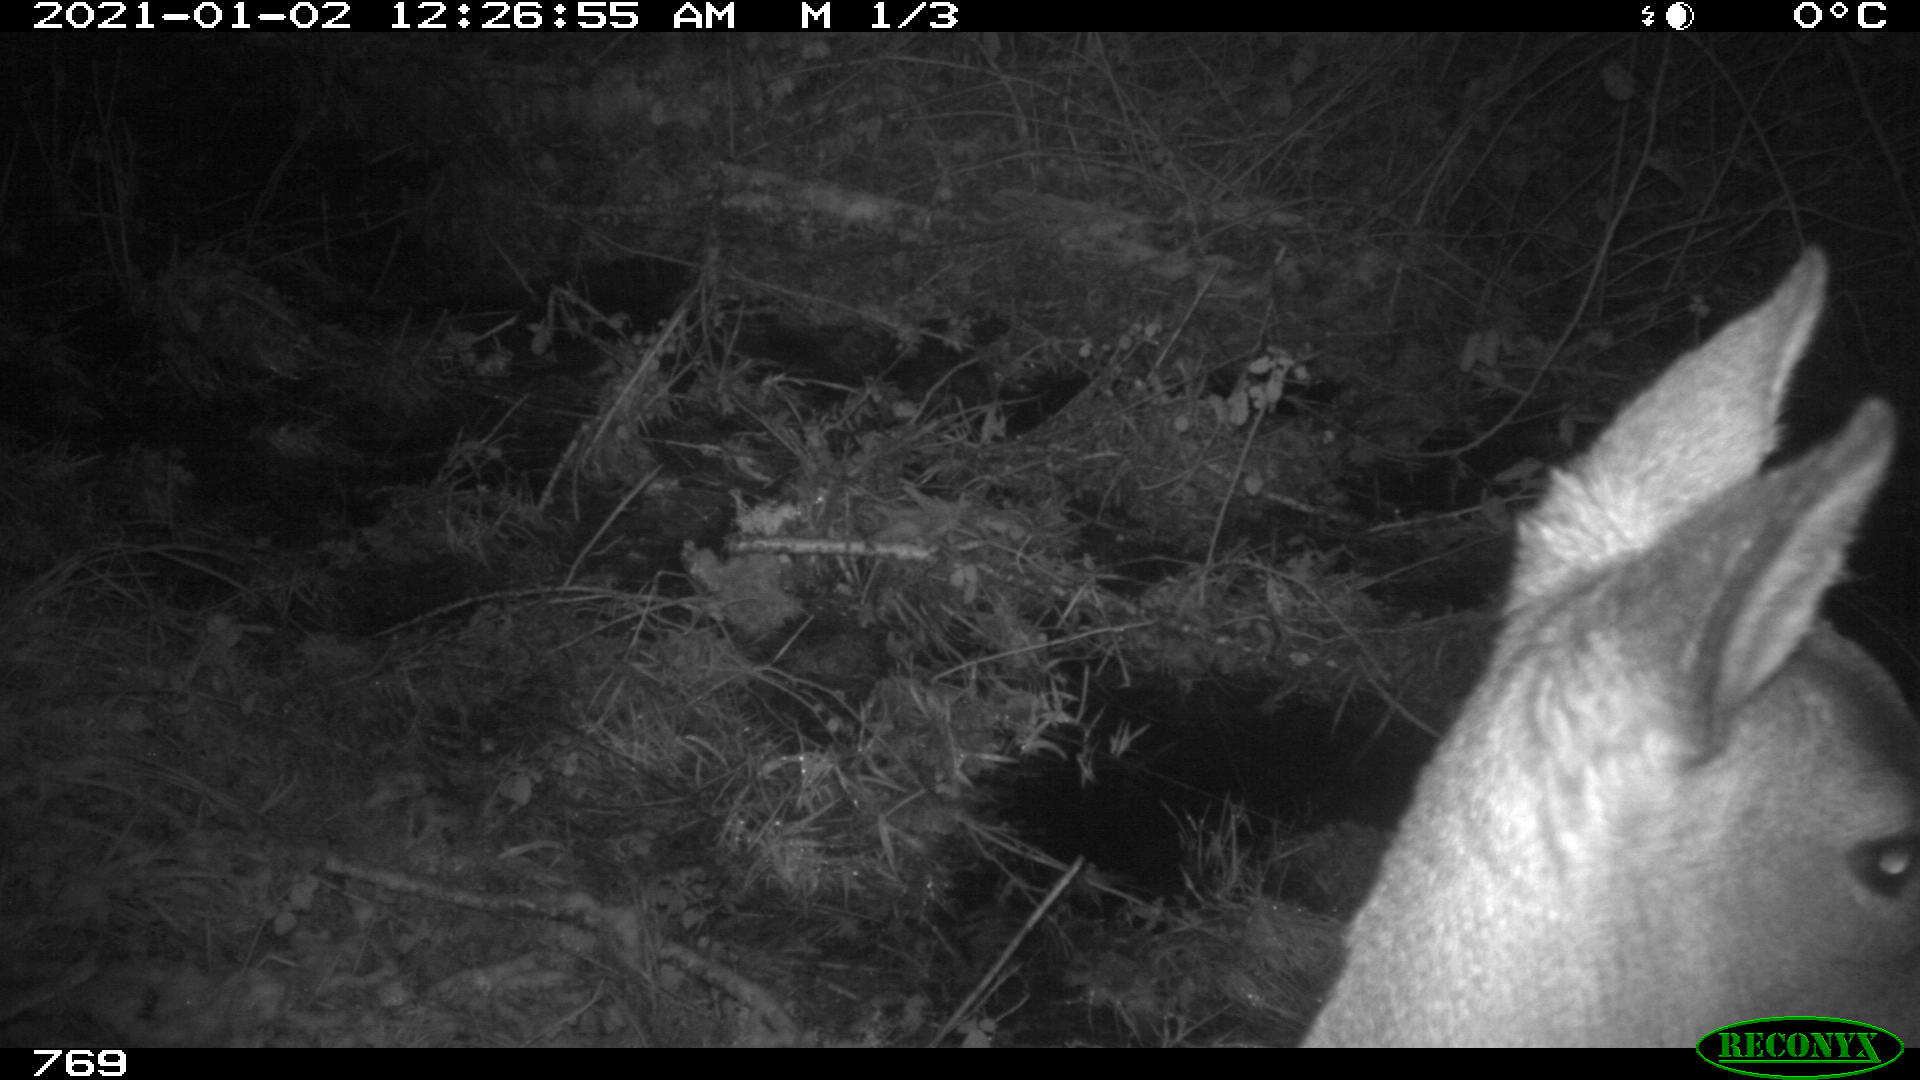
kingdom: Animalia
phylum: Chordata
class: Mammalia
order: Artiodactyla
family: Cervidae
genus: Capreolus
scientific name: Capreolus capreolus
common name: Western roe deer
